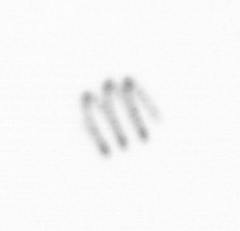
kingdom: Chromista
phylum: Ochrophyta
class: Bacillariophyceae
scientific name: Bacillariophyceae
